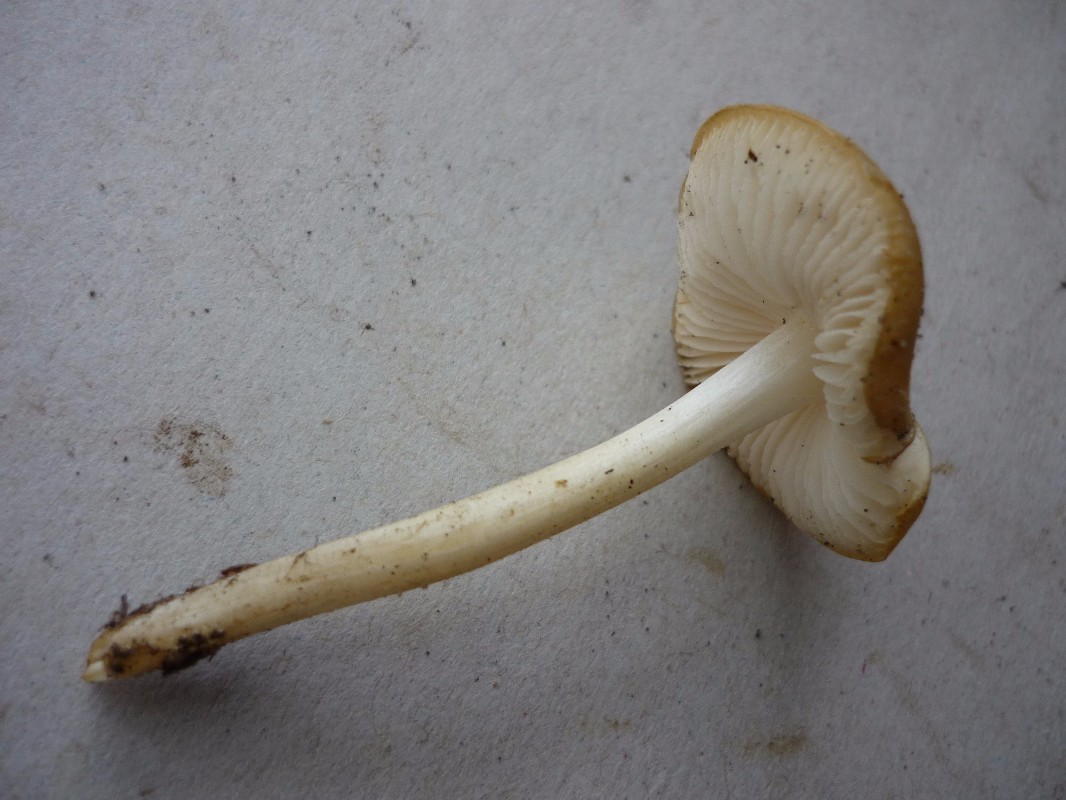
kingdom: Fungi
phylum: Basidiomycota
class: Agaricomycetes
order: Agaricales
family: Porotheleaceae
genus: Hydropodia
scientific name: Hydropodia subalpina
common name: vår-fnugfod
